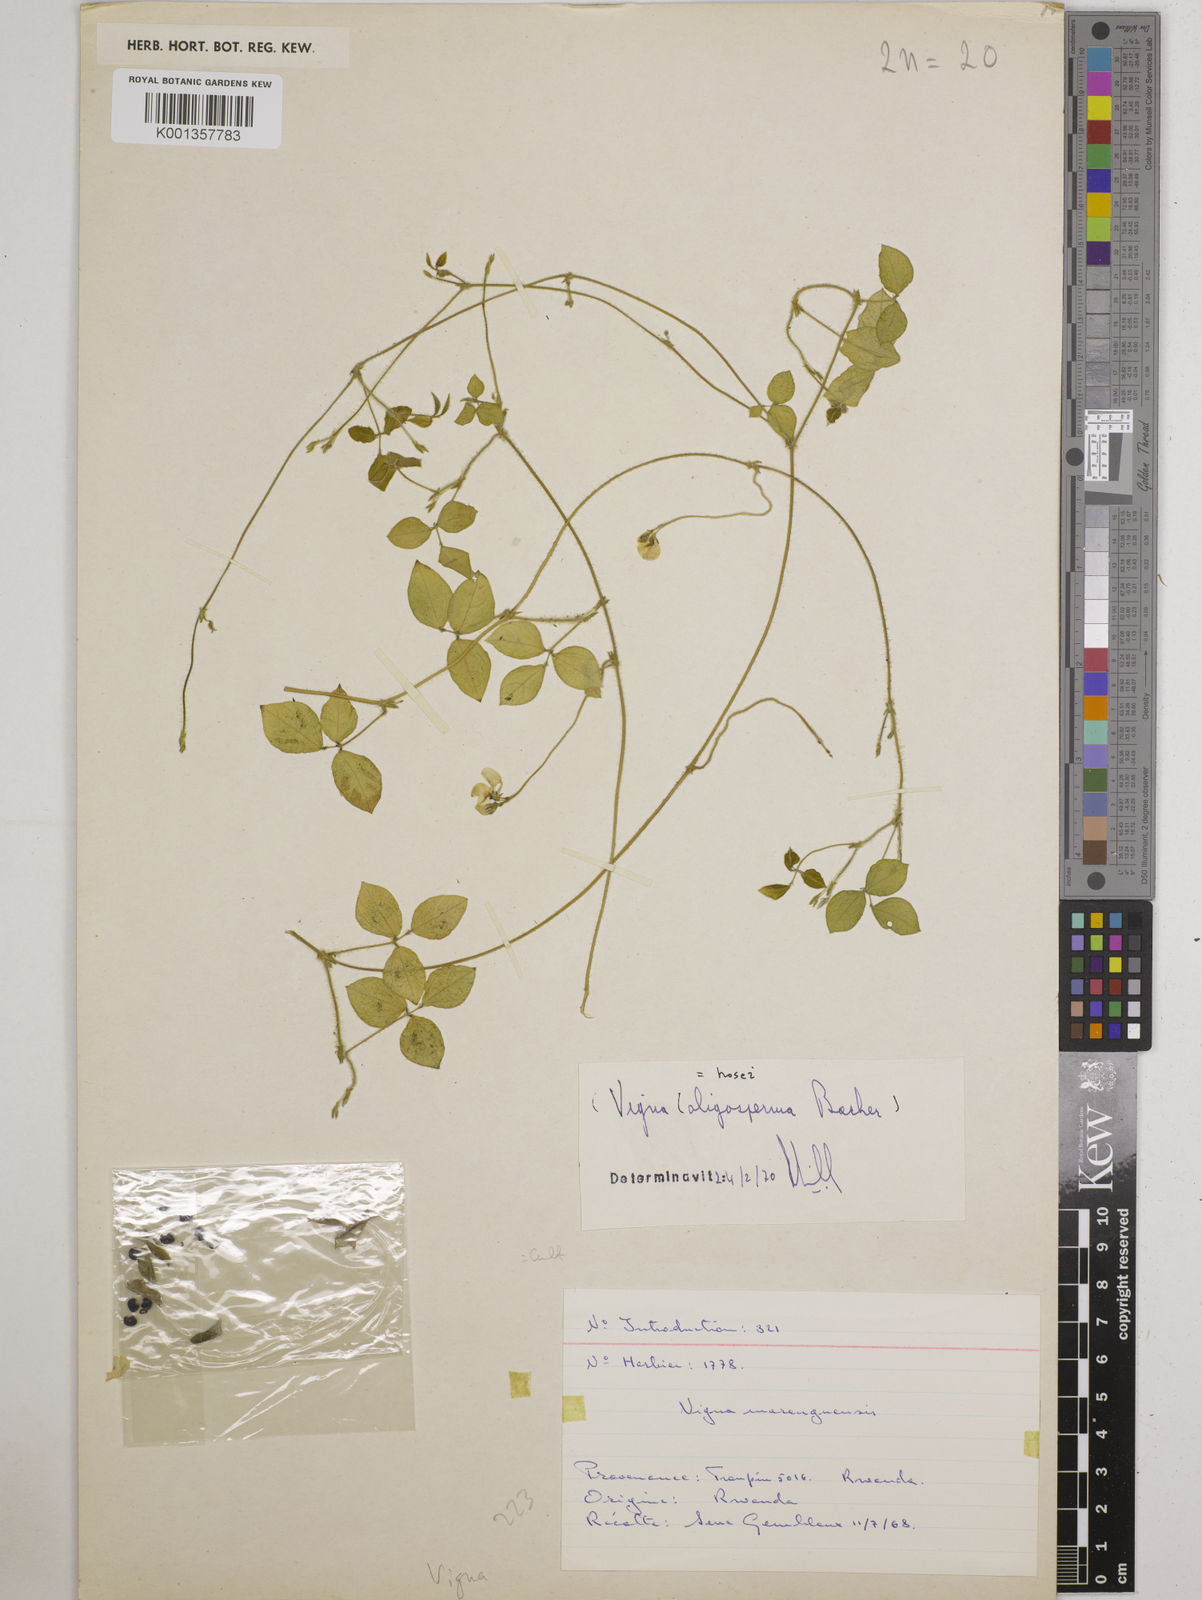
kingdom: Plantae
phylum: Tracheophyta
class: Magnoliopsida
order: Fabales
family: Fabaceae
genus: Vigna
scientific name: Vigna
